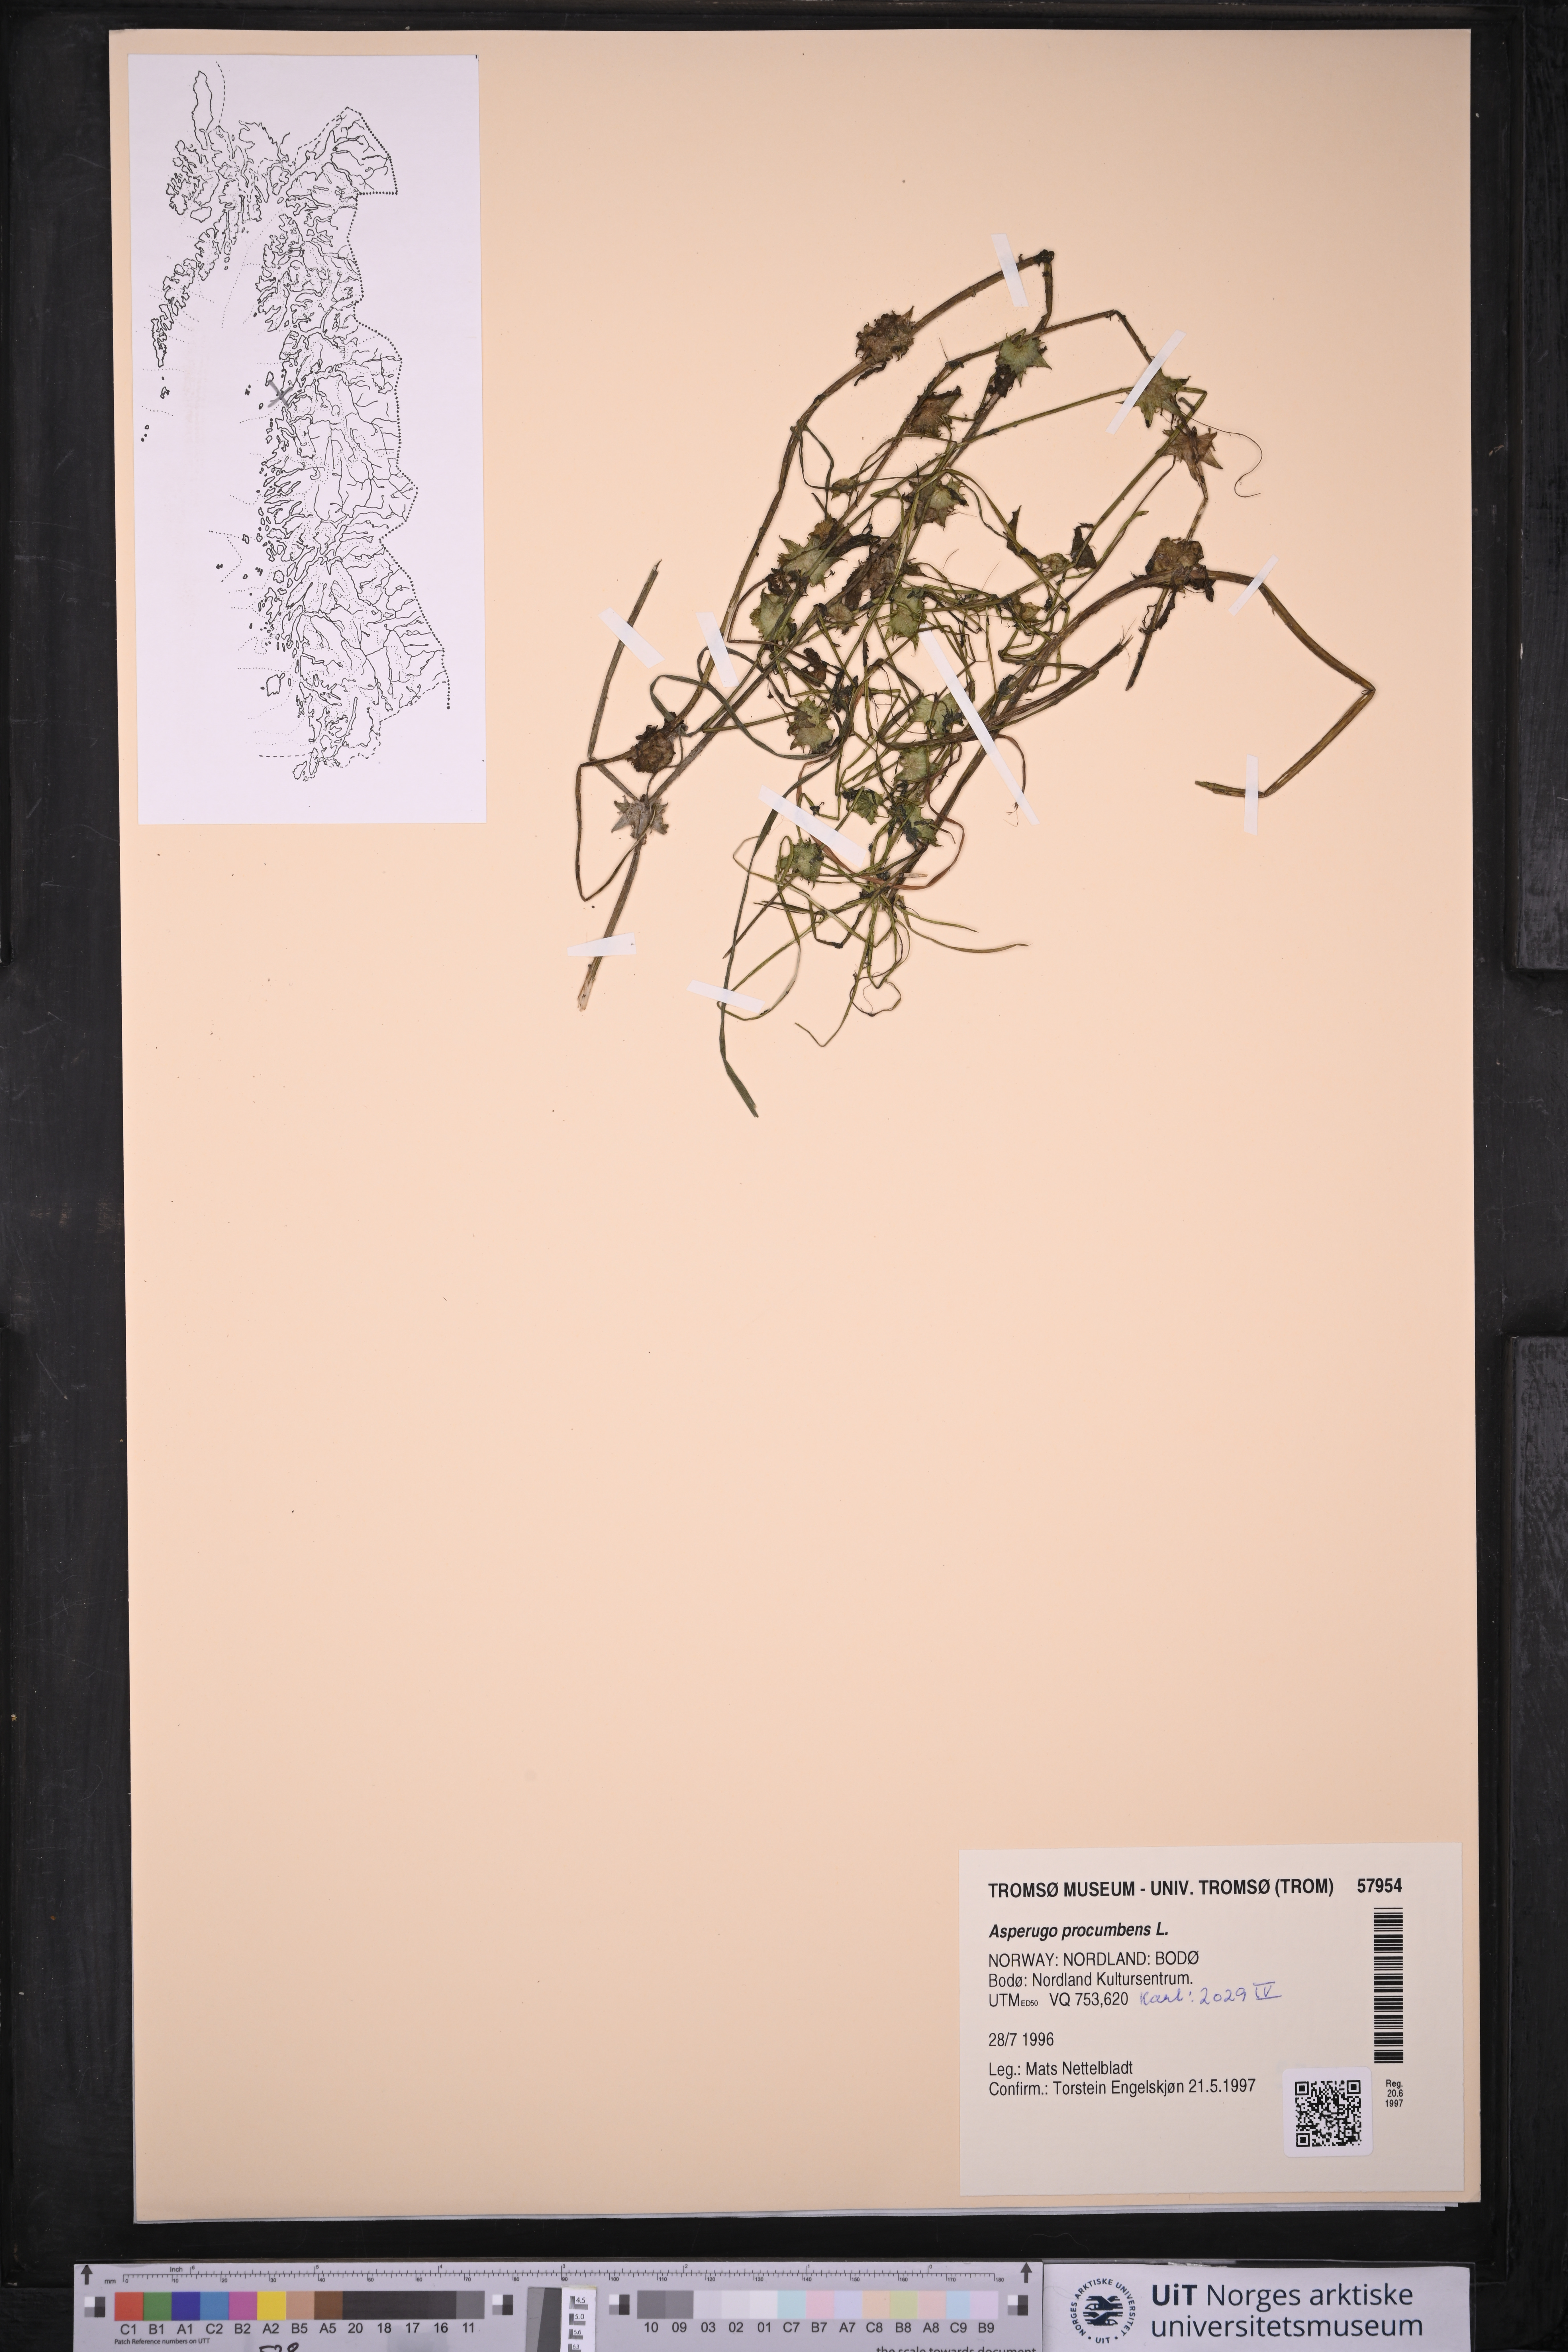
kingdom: Plantae
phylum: Tracheophyta
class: Magnoliopsida
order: Boraginales
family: Boraginaceae
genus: Asperugo
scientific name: Asperugo procumbens
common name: Madwort
